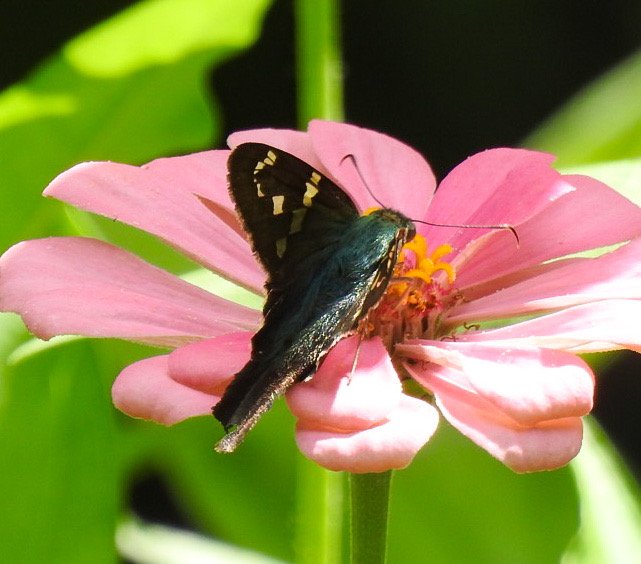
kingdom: Animalia
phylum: Arthropoda
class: Insecta
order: Lepidoptera
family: Hesperiidae
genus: Urbanus
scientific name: Urbanus proteus
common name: Long-tailed Skipper
